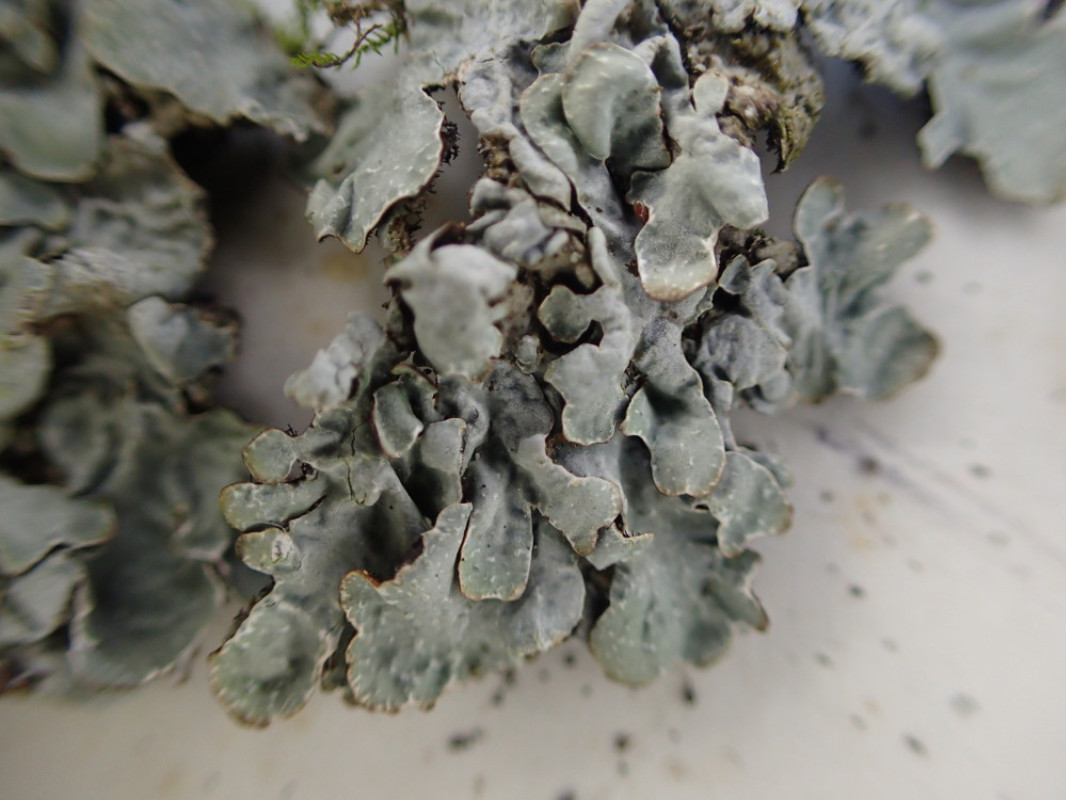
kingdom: Fungi
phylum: Ascomycota
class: Lecanoromycetes
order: Lecanorales
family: Parmeliaceae
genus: Parmelia
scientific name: Parmelia sulcata
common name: rynket skållav
